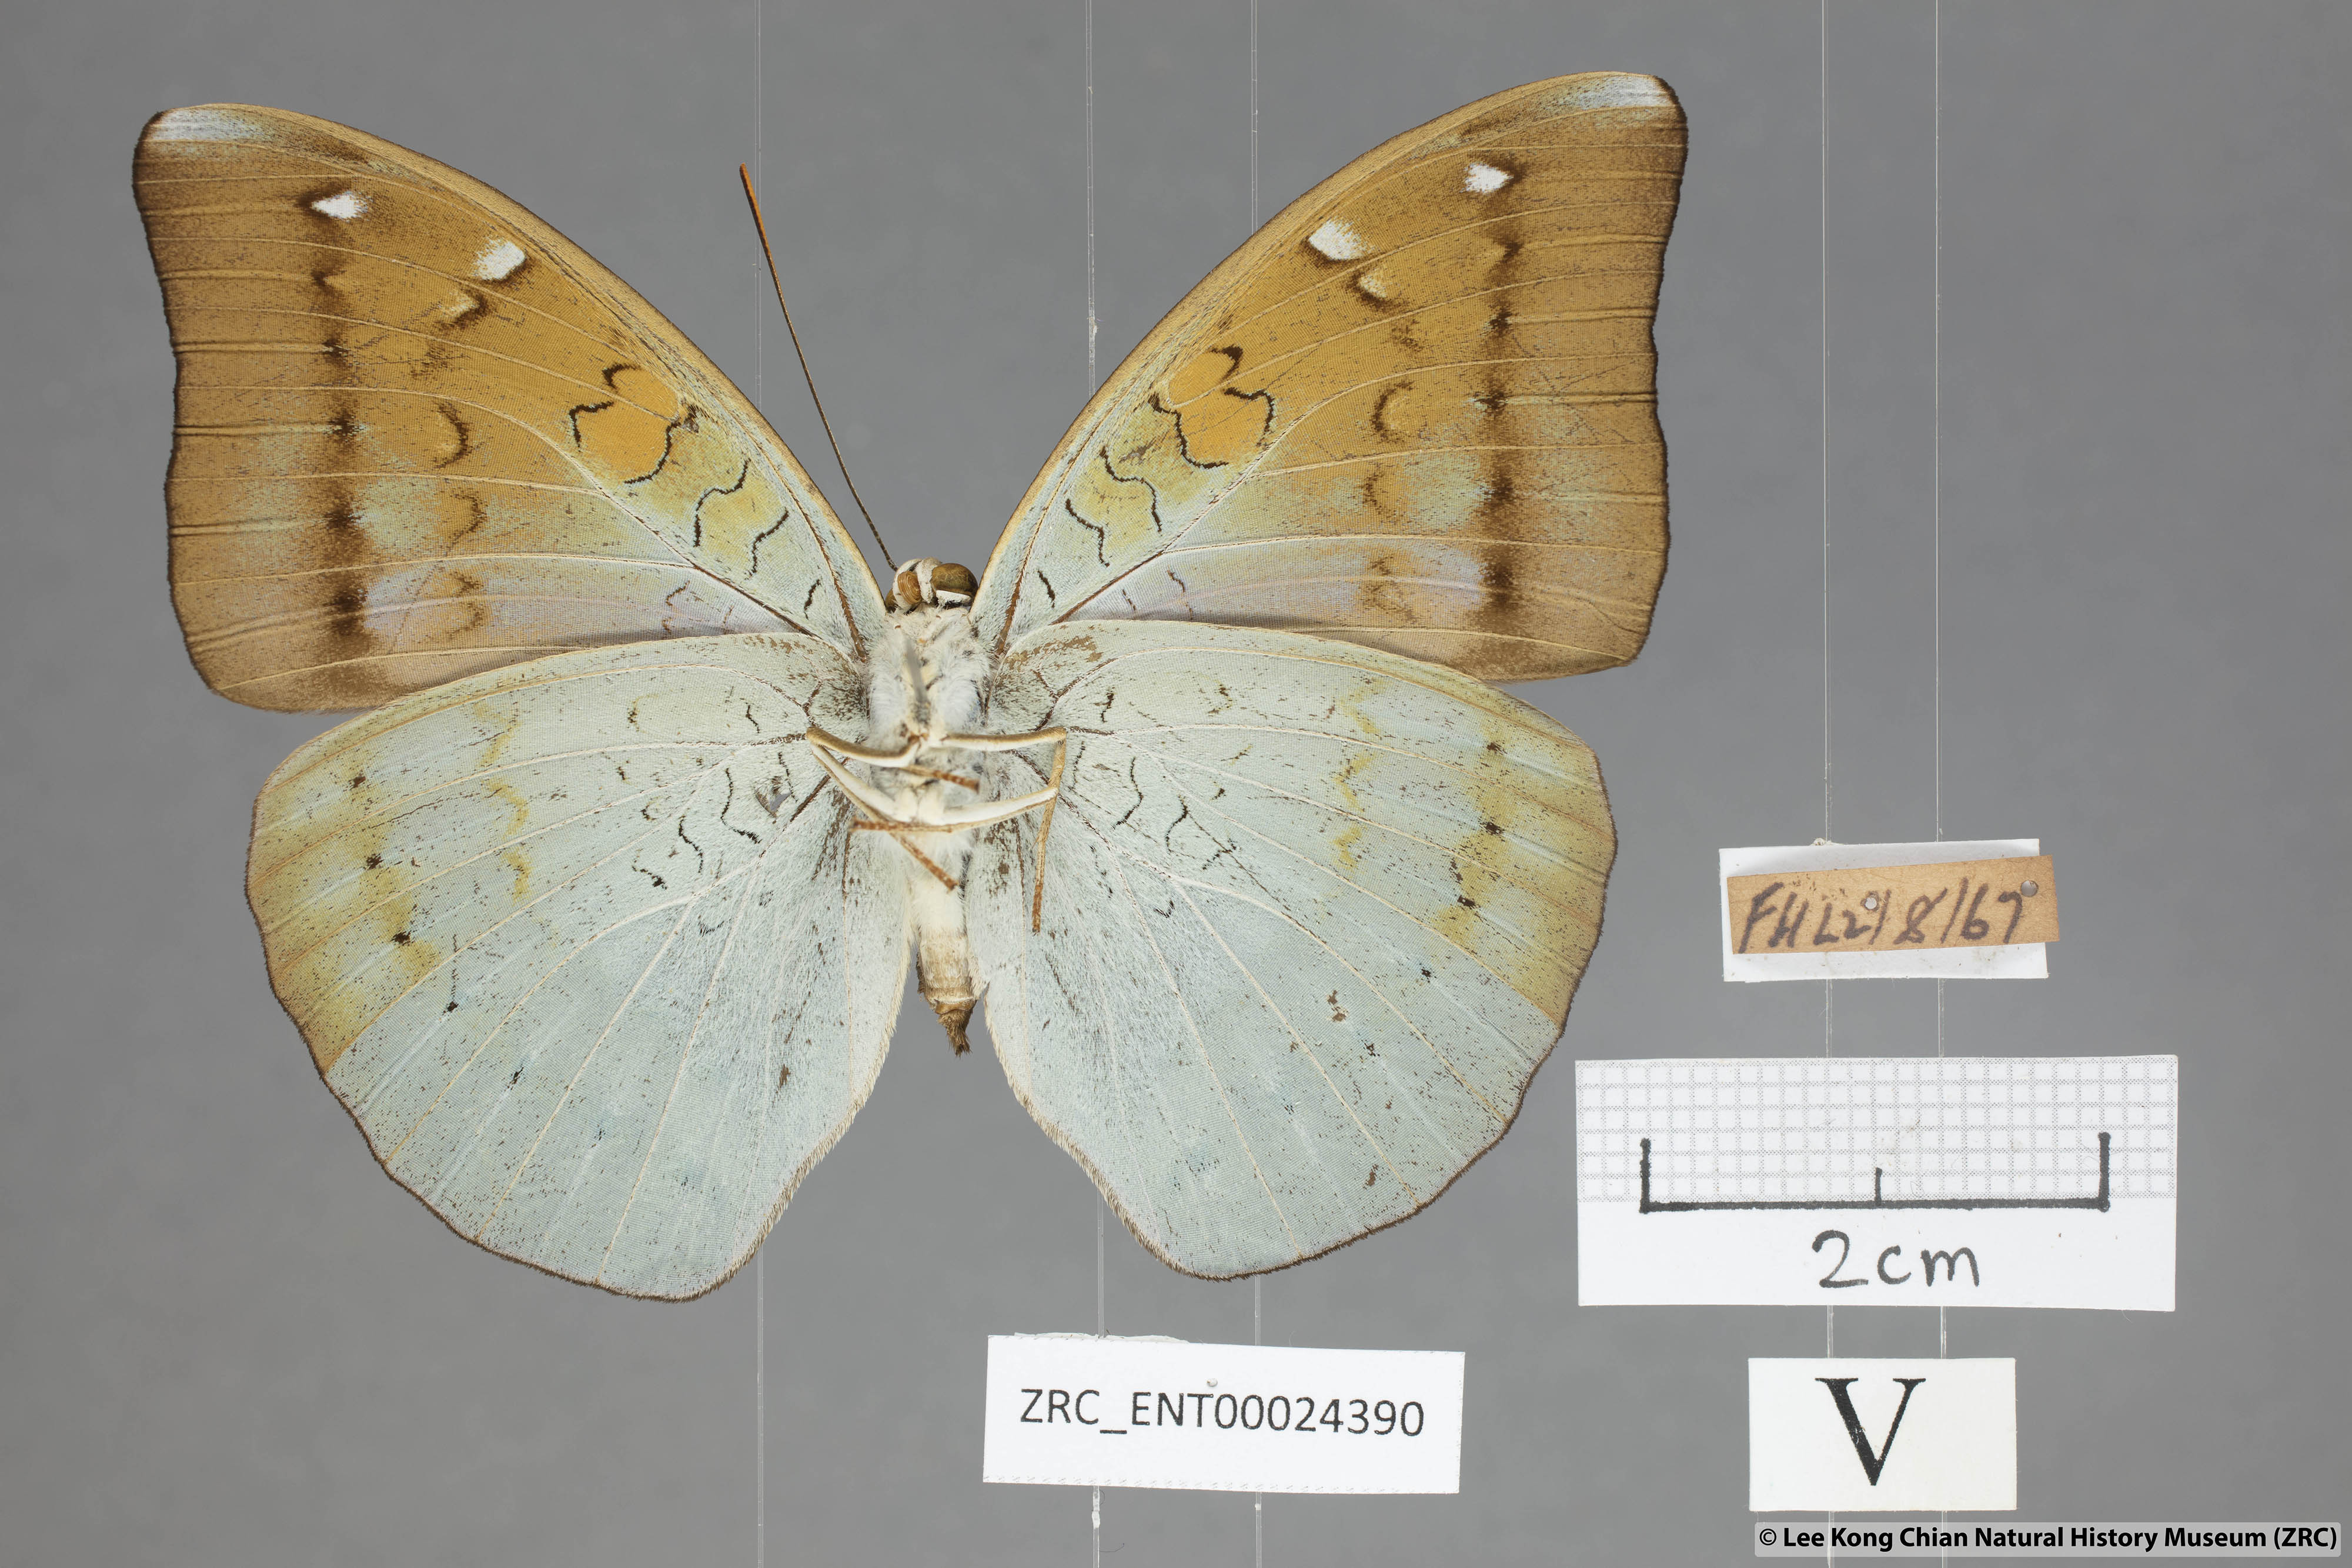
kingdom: Animalia
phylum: Arthropoda
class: Insecta
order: Lepidoptera
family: Nymphalidae
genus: Tanaecia
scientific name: Tanaecia julii
